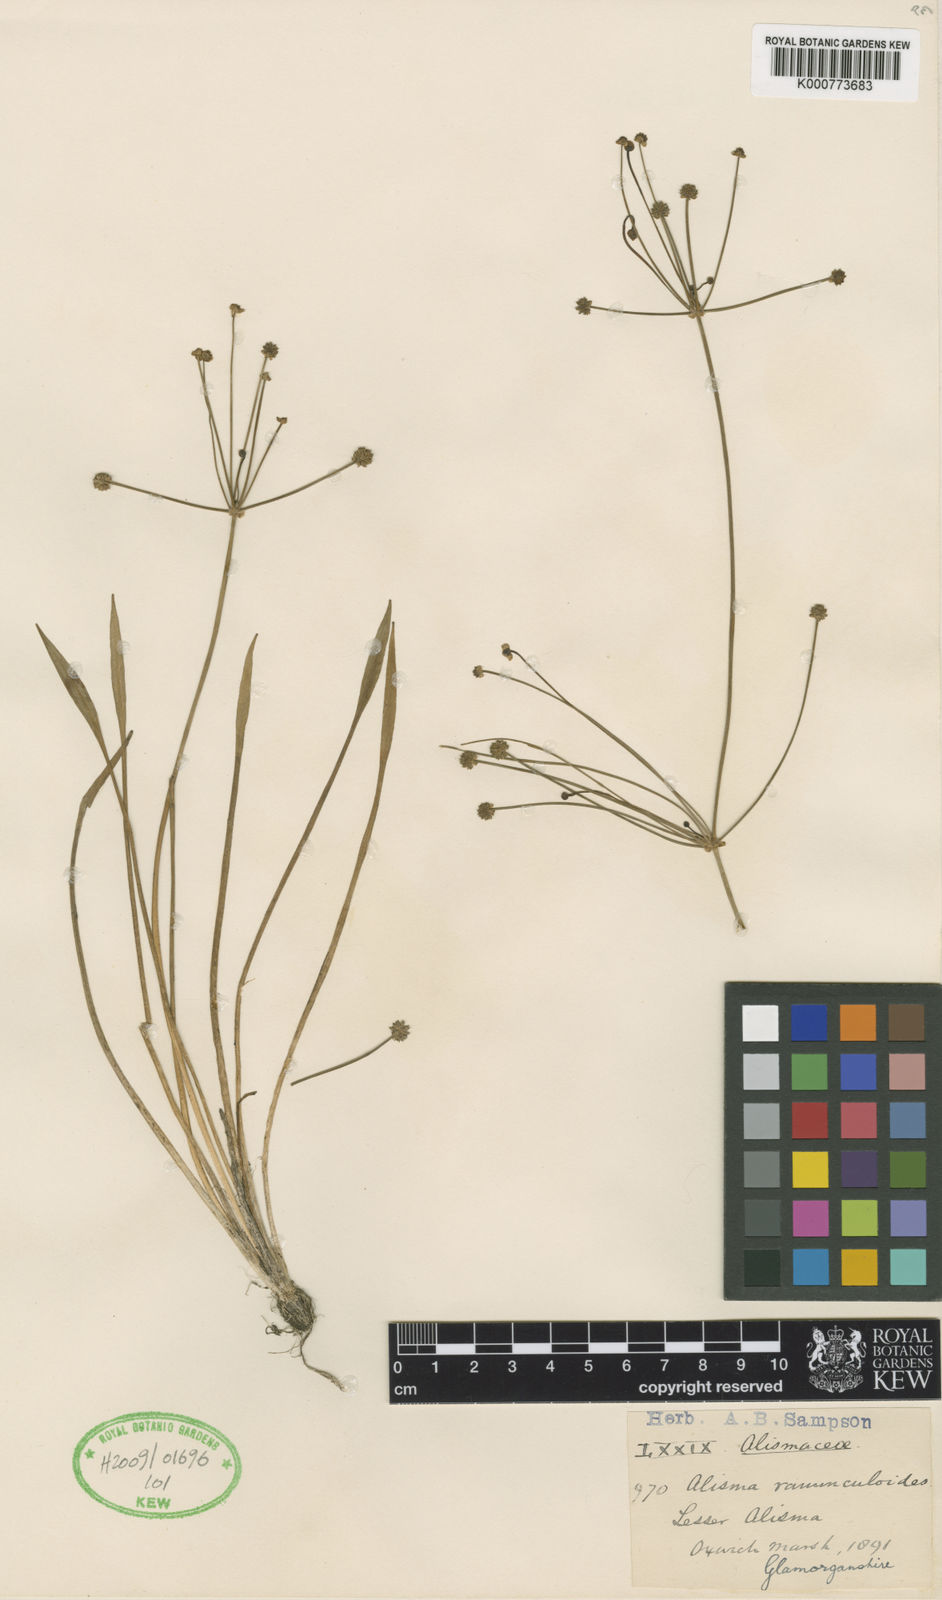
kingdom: Plantae
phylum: Tracheophyta
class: Liliopsida
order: Alismatales
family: Alismataceae
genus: Baldellia
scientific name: Baldellia ranunculoides
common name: Lesser water-plantain
